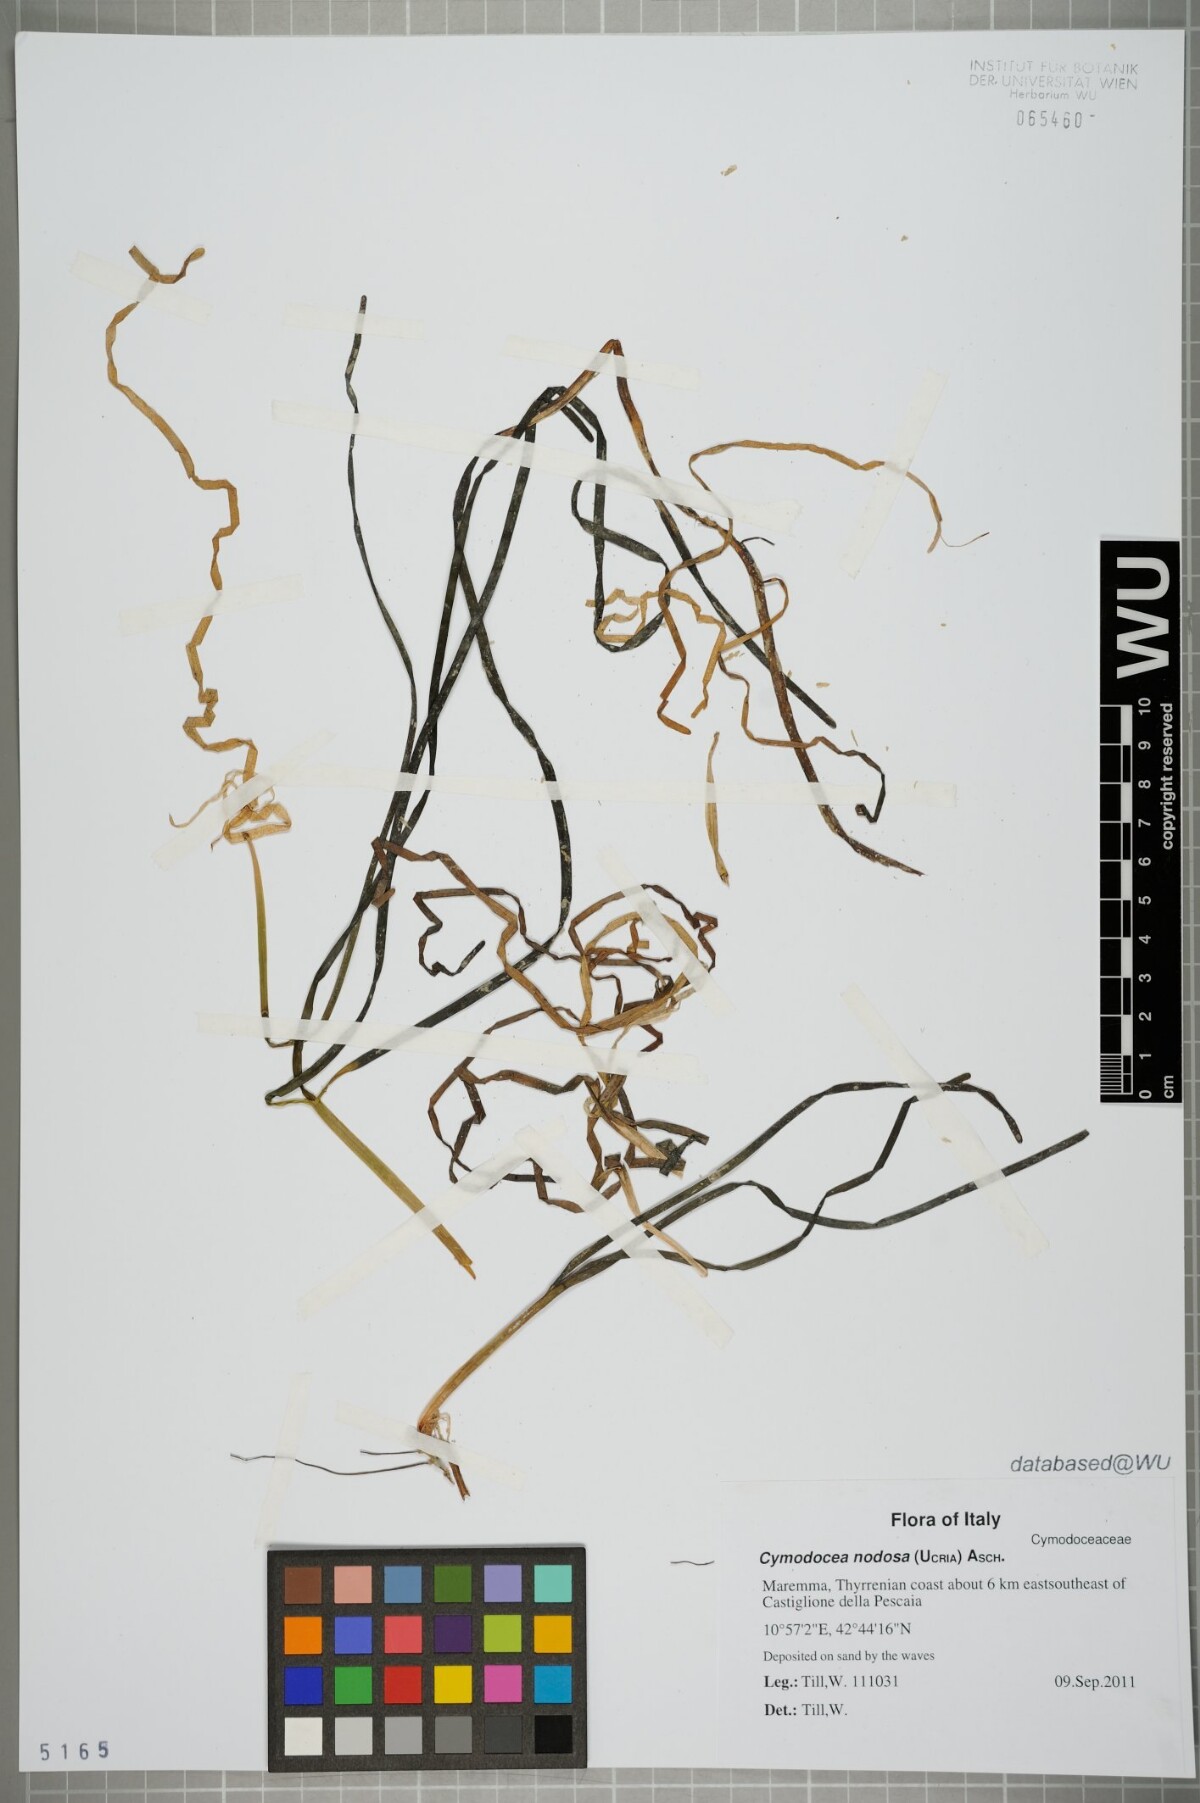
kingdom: Plantae
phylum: Tracheophyta
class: Liliopsida
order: Alismatales
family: Cymodoceaceae
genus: Cymodocea
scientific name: Cymodocea nodosa
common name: Slender seagrass
